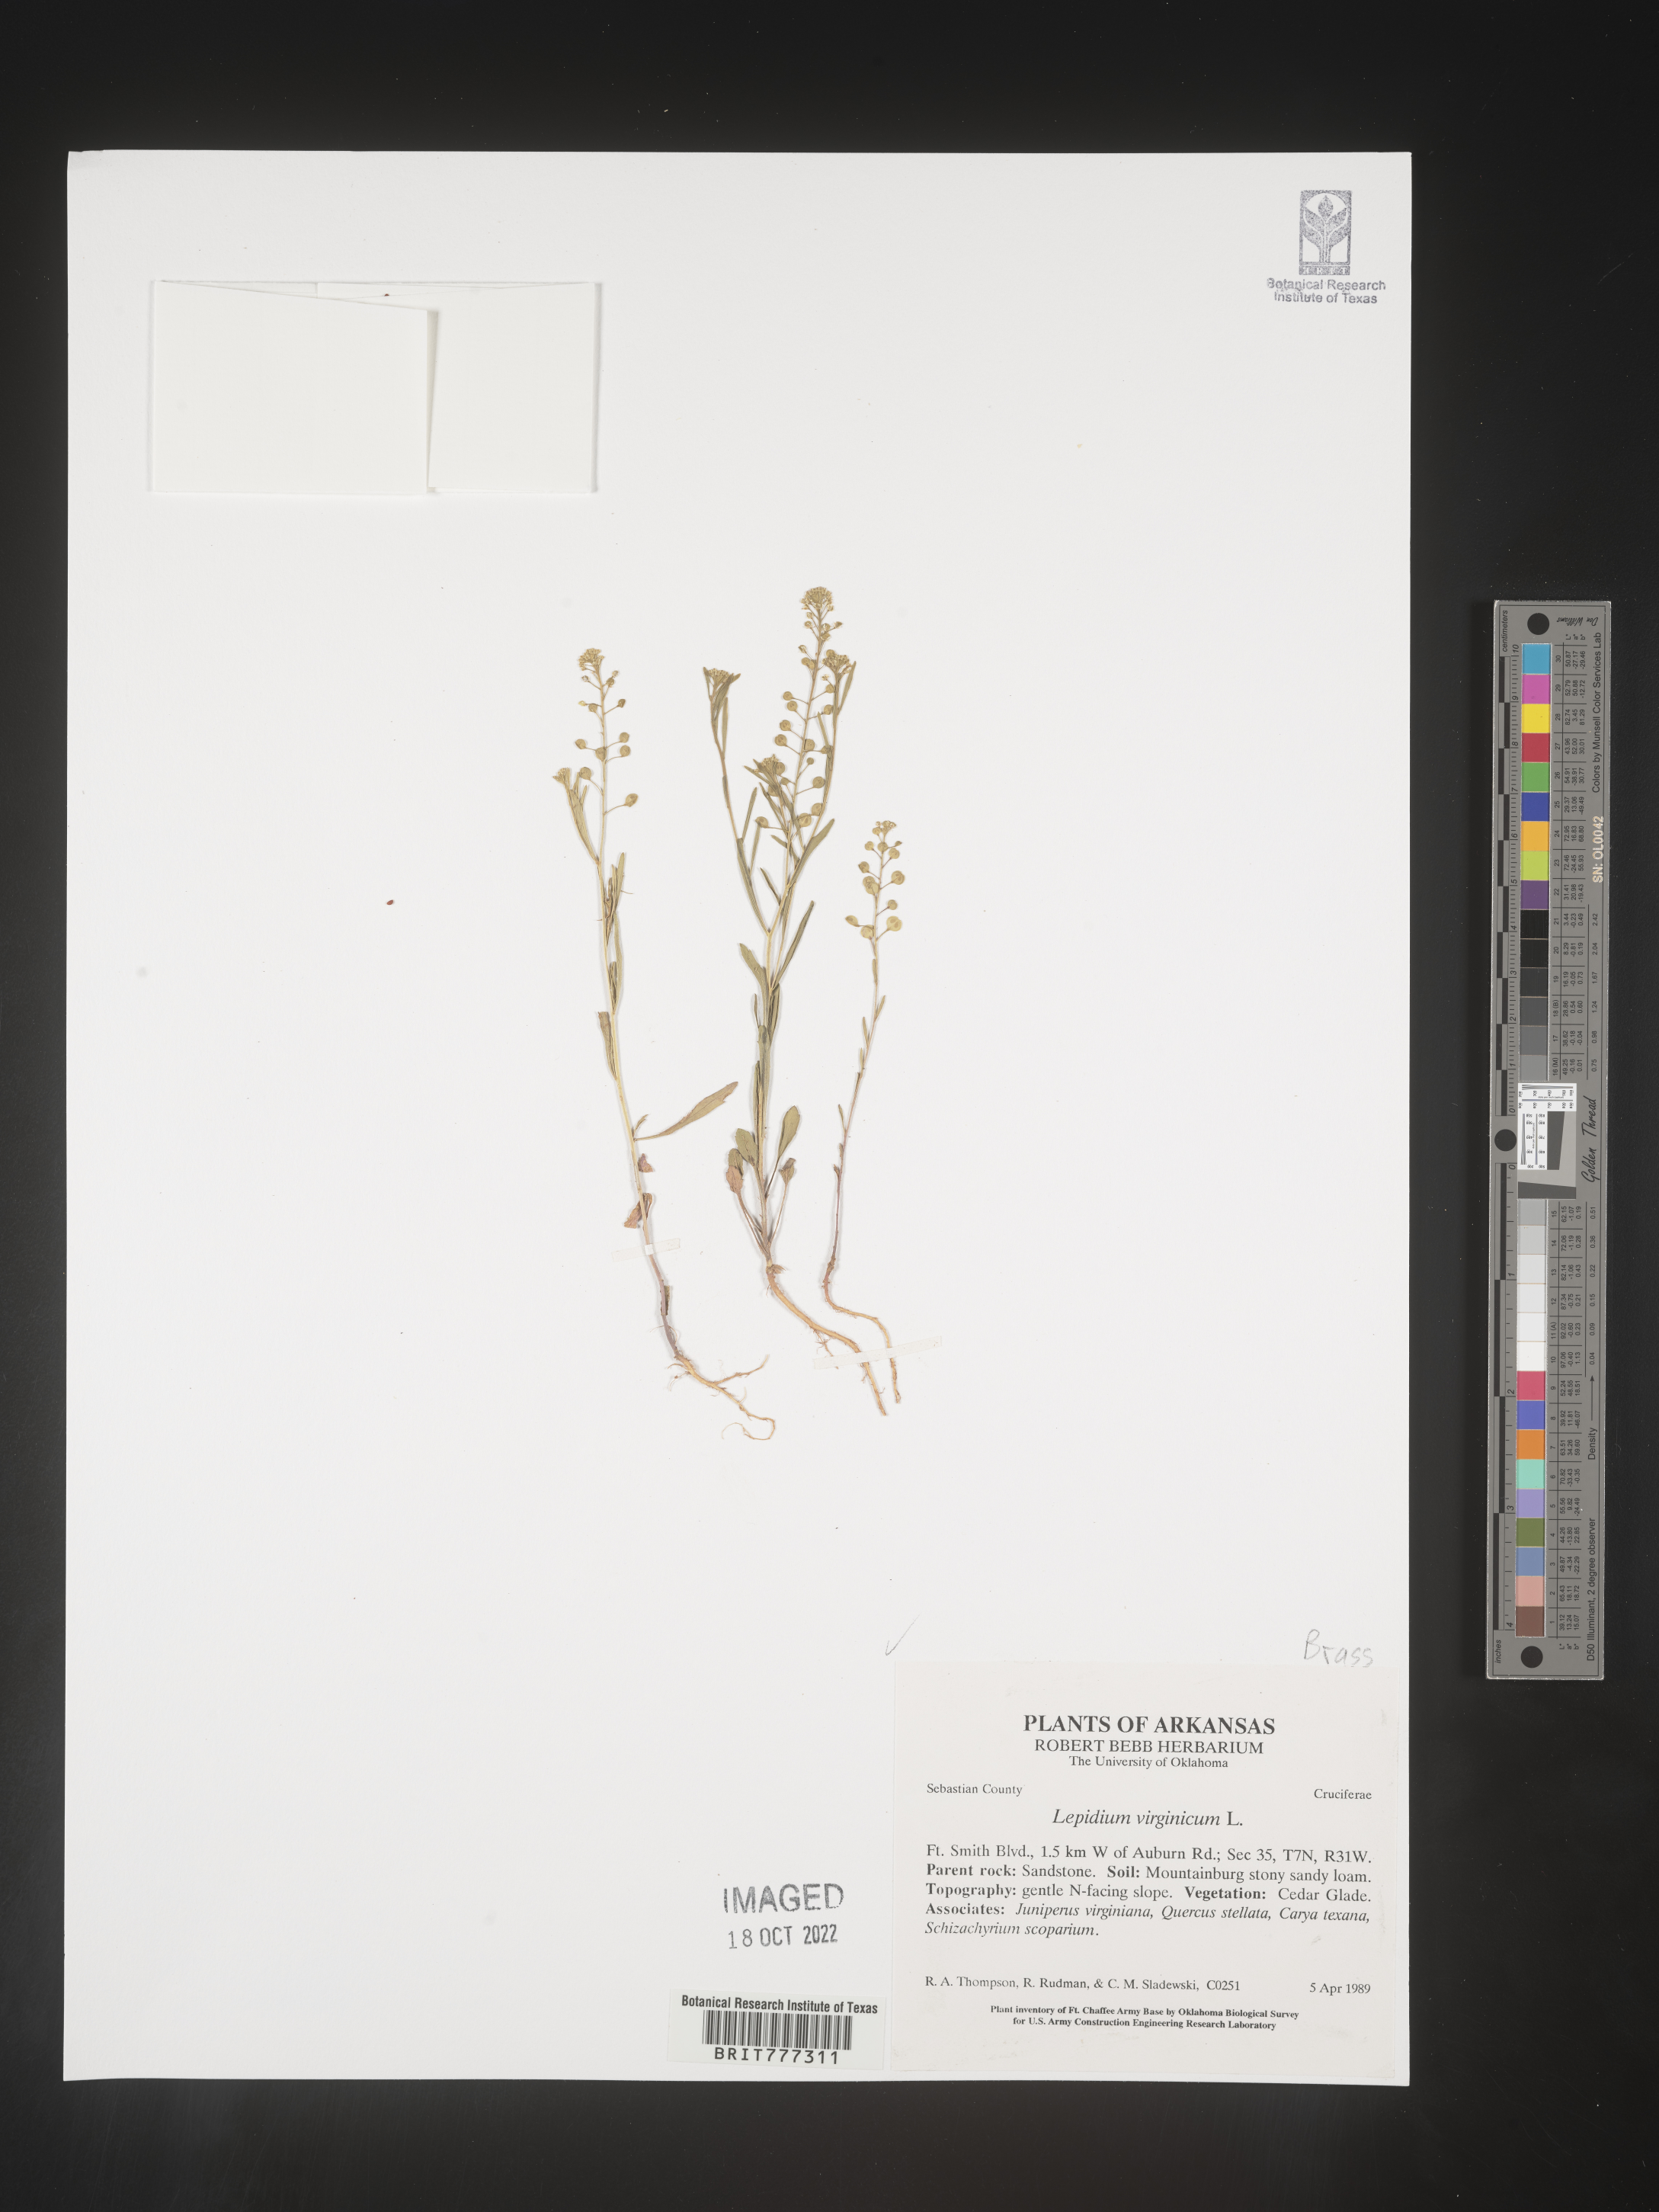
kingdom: Plantae
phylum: Tracheophyta
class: Magnoliopsida
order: Brassicales
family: Brassicaceae
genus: Lepidium
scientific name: Lepidium virginicum
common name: Least pepperwort
